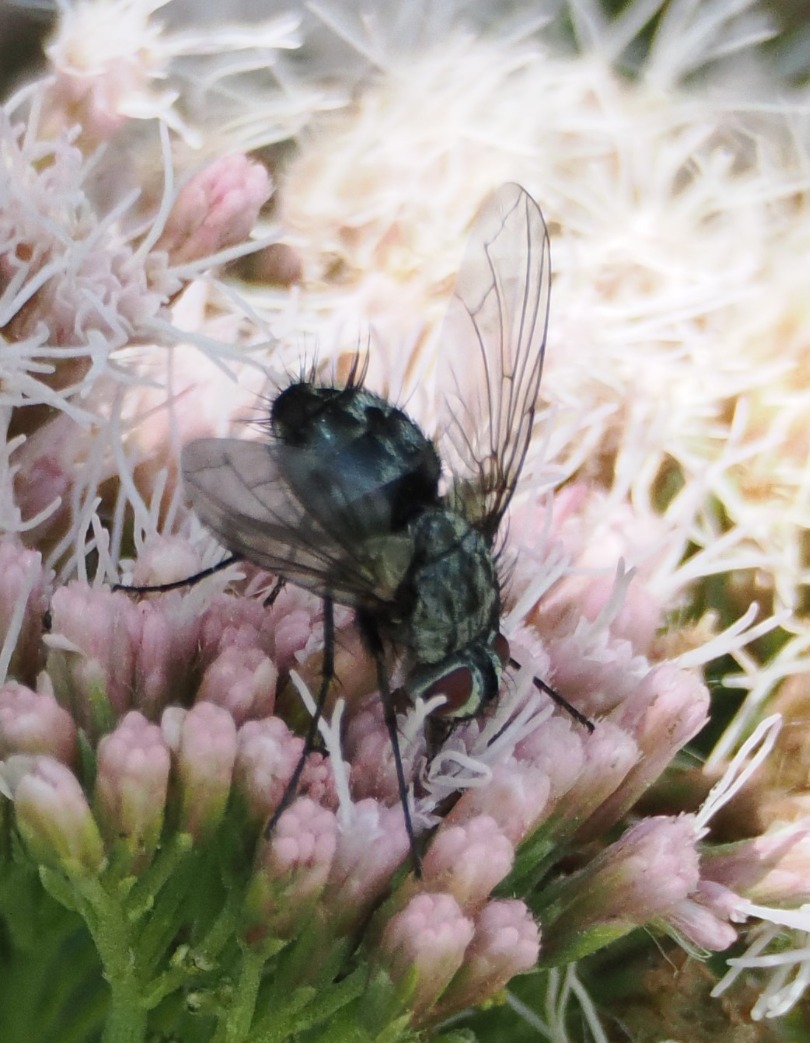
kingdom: Animalia
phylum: Arthropoda
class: Insecta
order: Diptera
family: Tachinidae
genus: Dinera
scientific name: Dinera ferina
